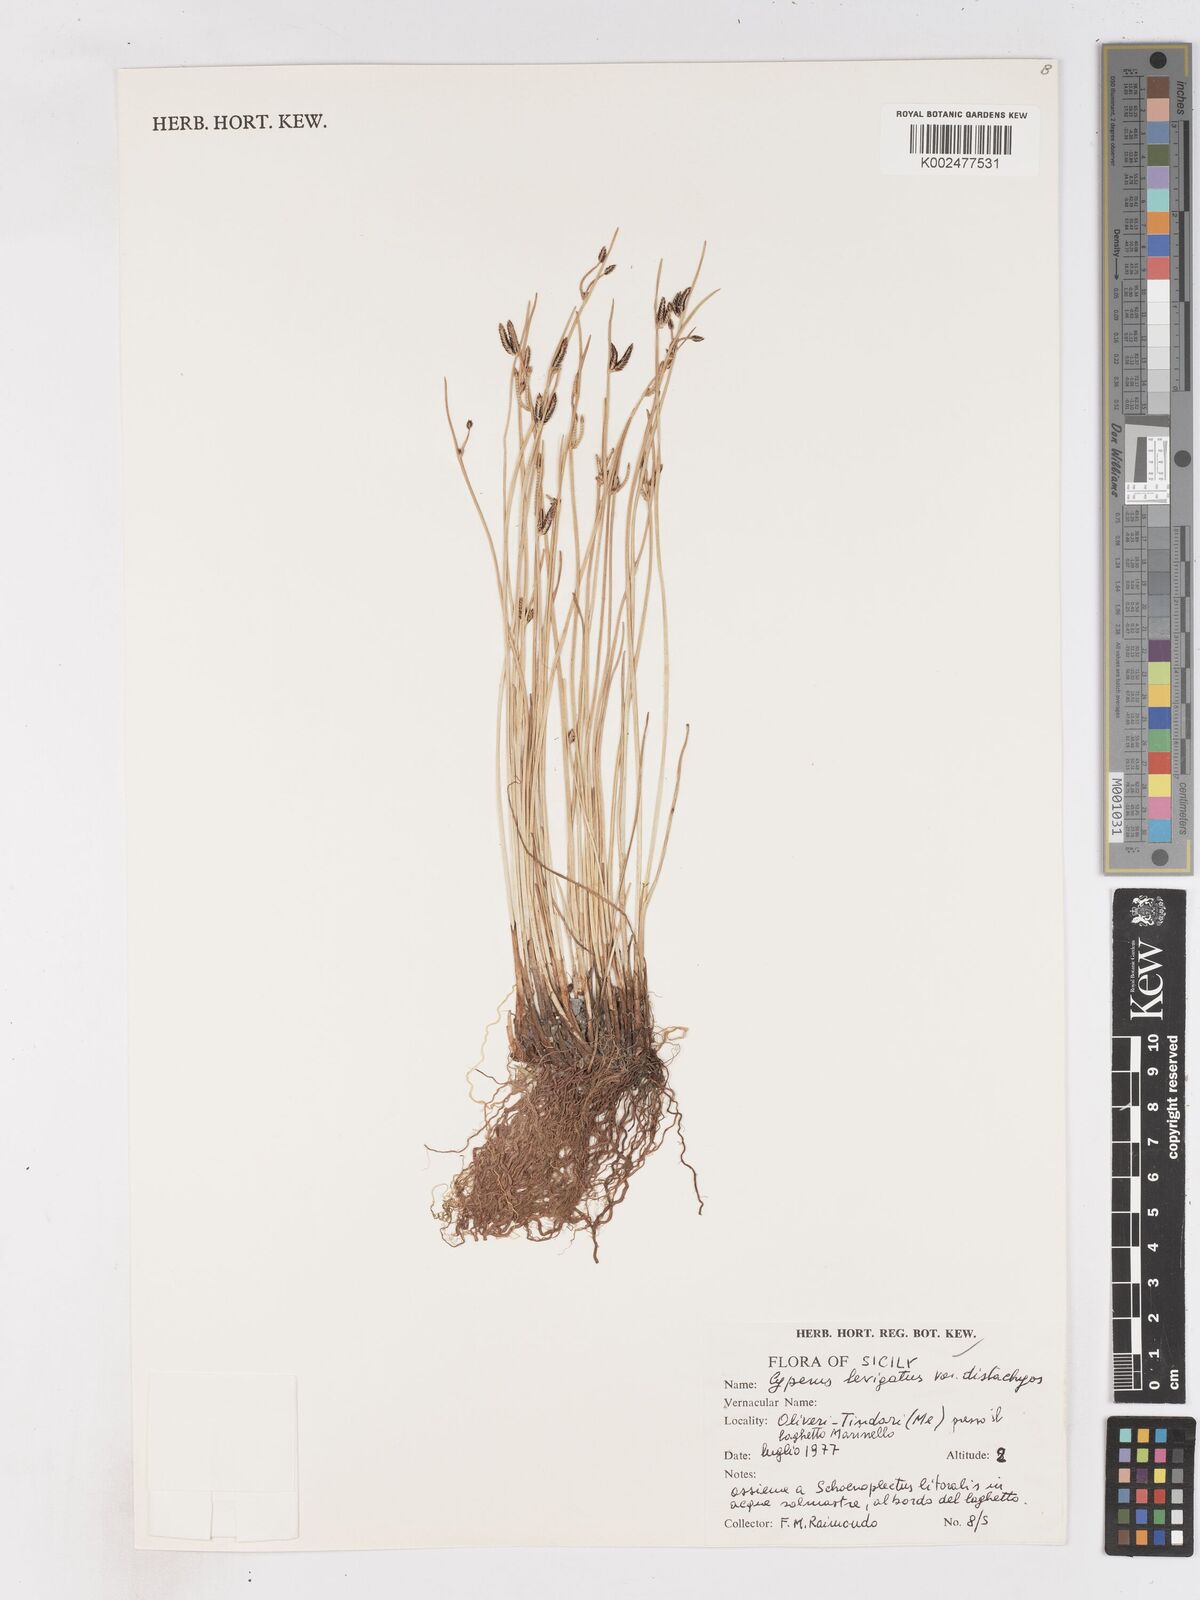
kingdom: Plantae
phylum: Tracheophyta
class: Liliopsida
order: Poales
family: Cyperaceae
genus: Cyperus
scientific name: Cyperus laevigatus
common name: Smooth flat sedge
